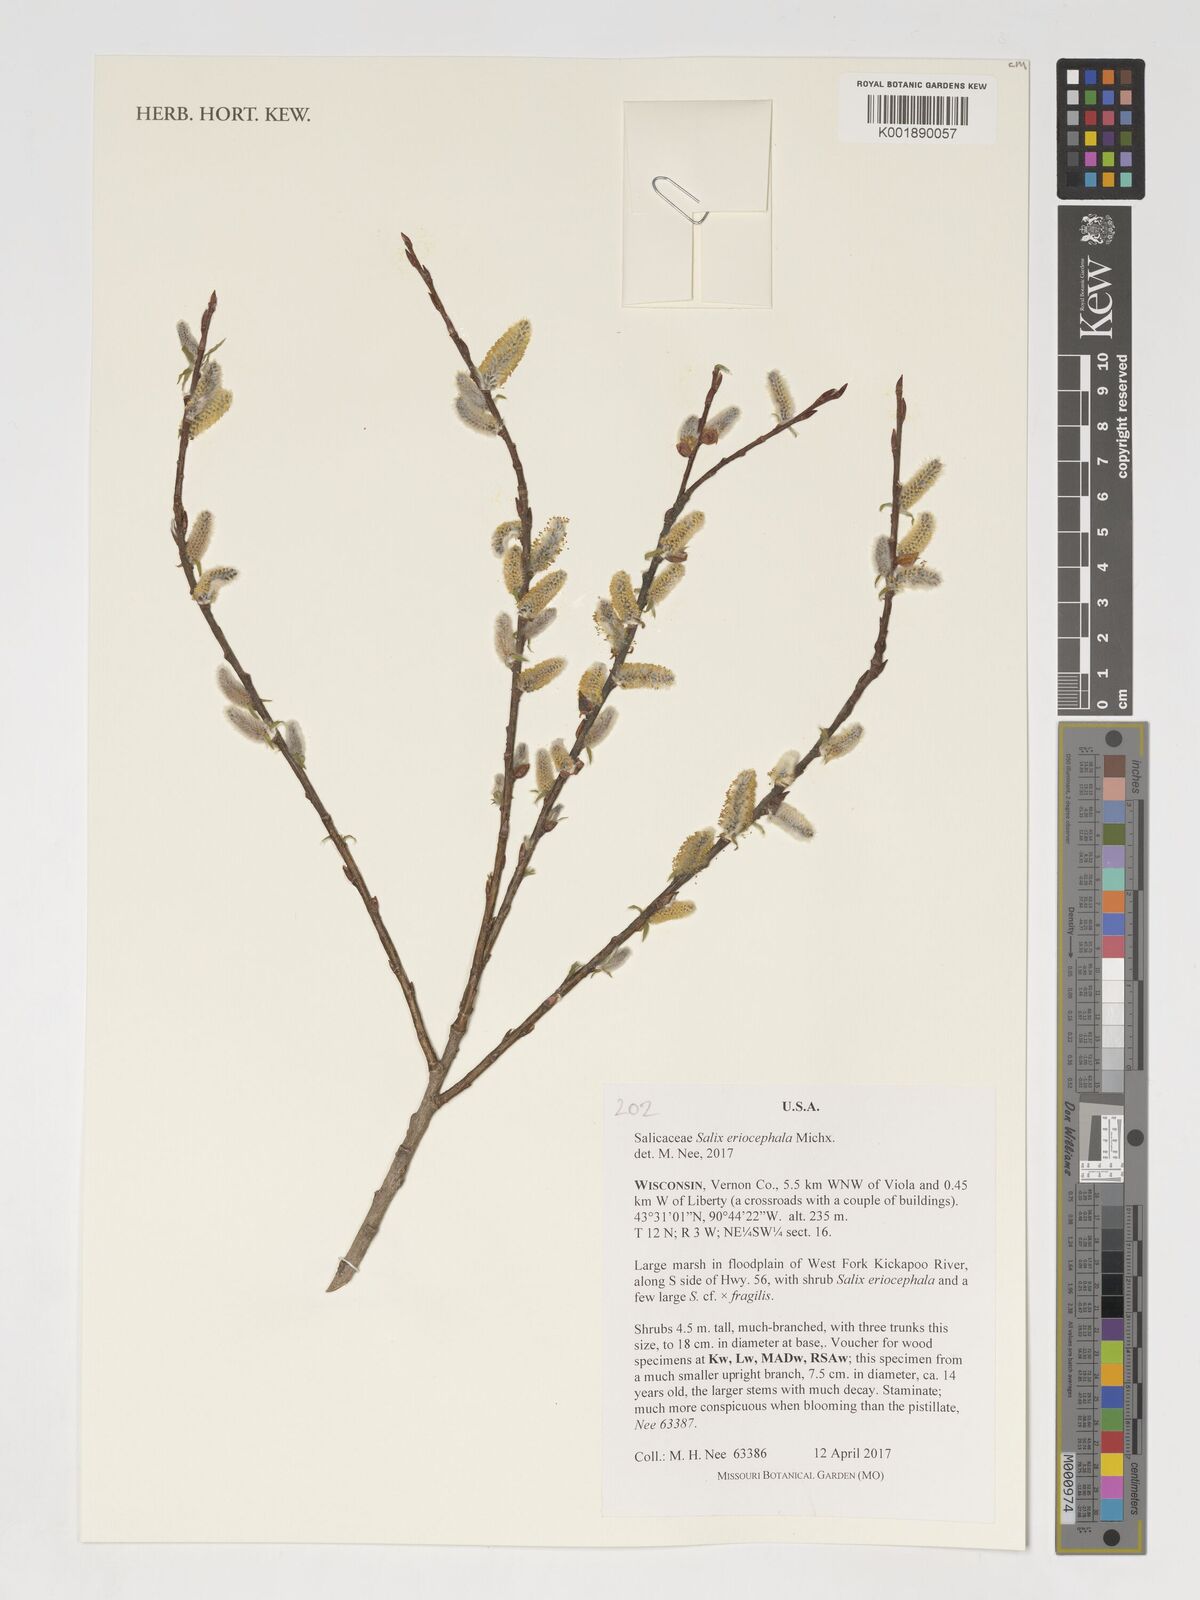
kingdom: Plantae
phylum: Tracheophyta
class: Magnoliopsida
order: Malpighiales
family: Salicaceae
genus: Salix
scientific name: Salix eriocephala
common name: Heart-leaved willow
